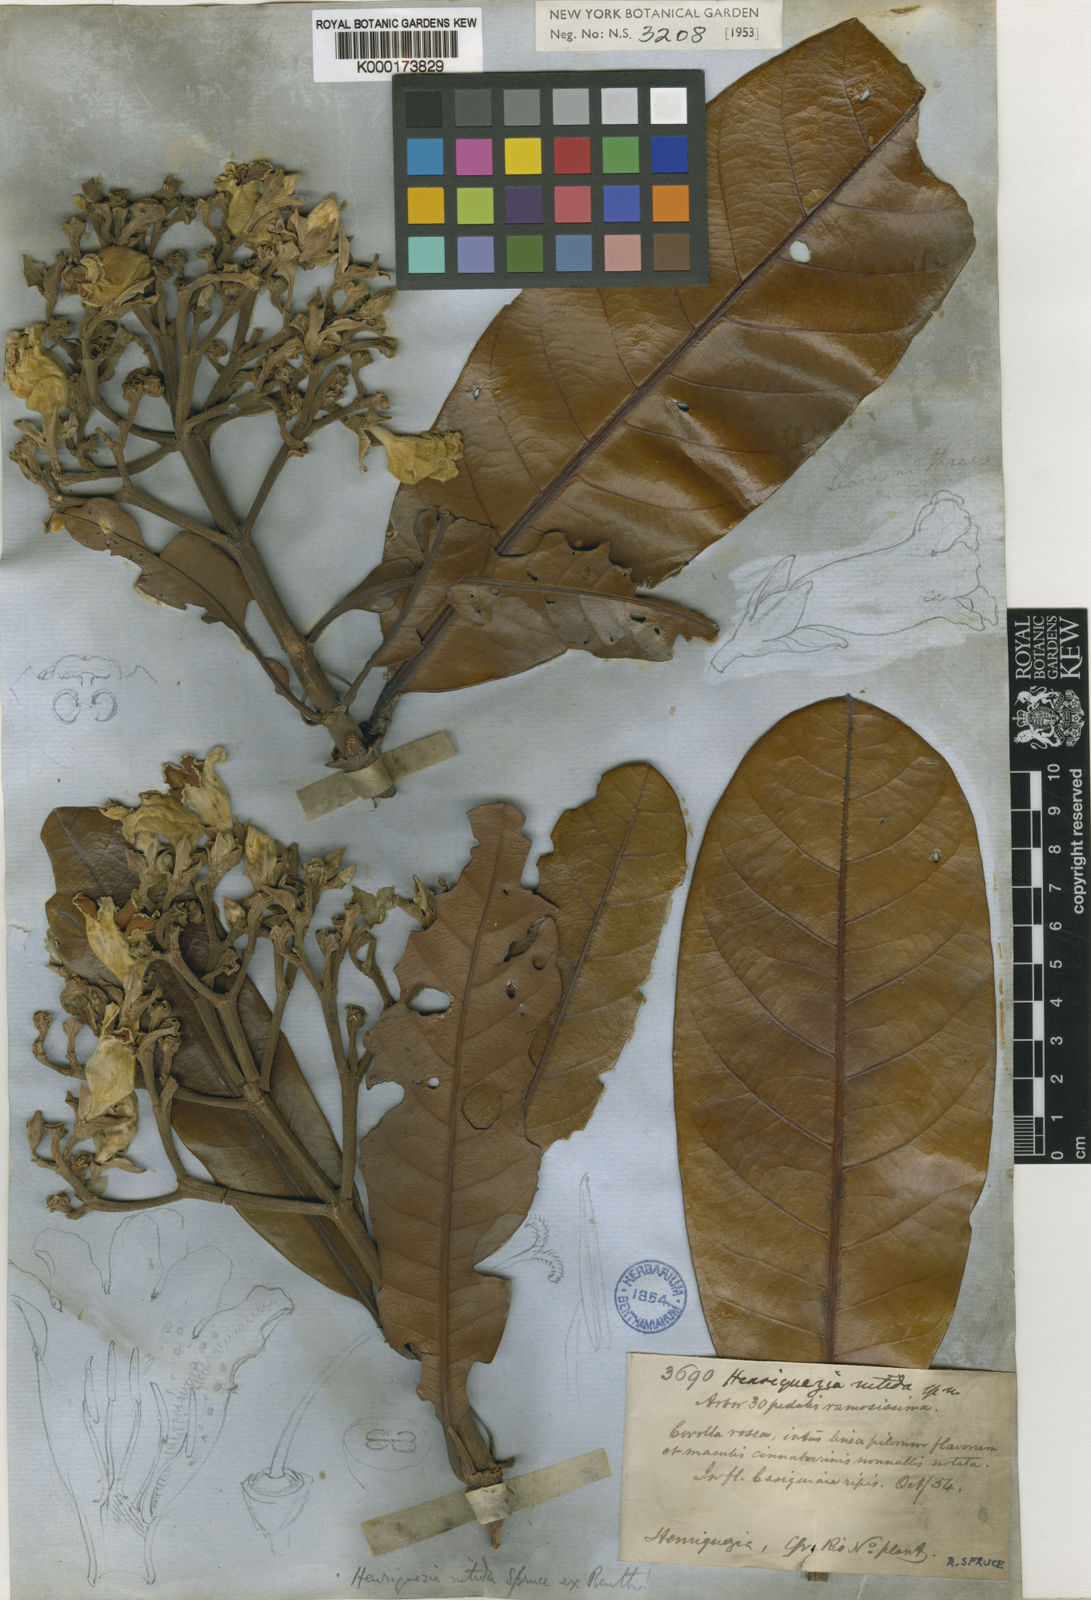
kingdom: Plantae
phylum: Tracheophyta
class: Magnoliopsida
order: Gentianales
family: Rubiaceae
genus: Henriquezia
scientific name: Henriquezia nitida
